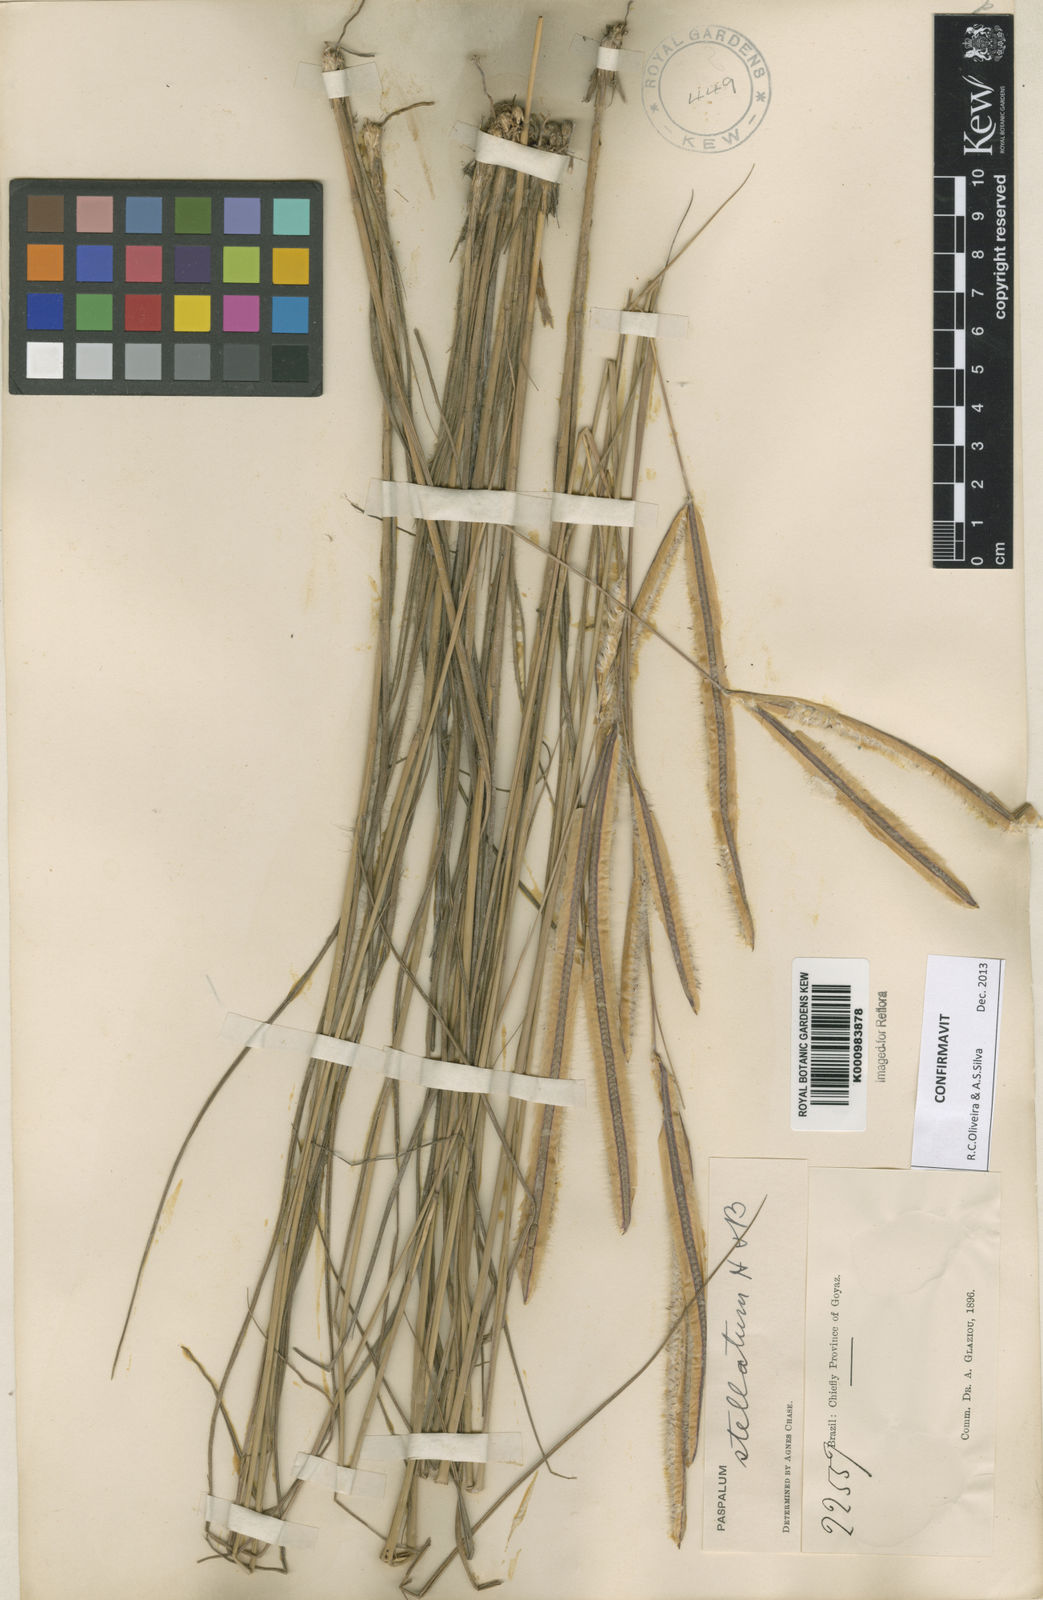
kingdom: Plantae
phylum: Tracheophyta
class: Liliopsida
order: Poales
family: Poaceae
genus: Paspalum
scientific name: Paspalum
